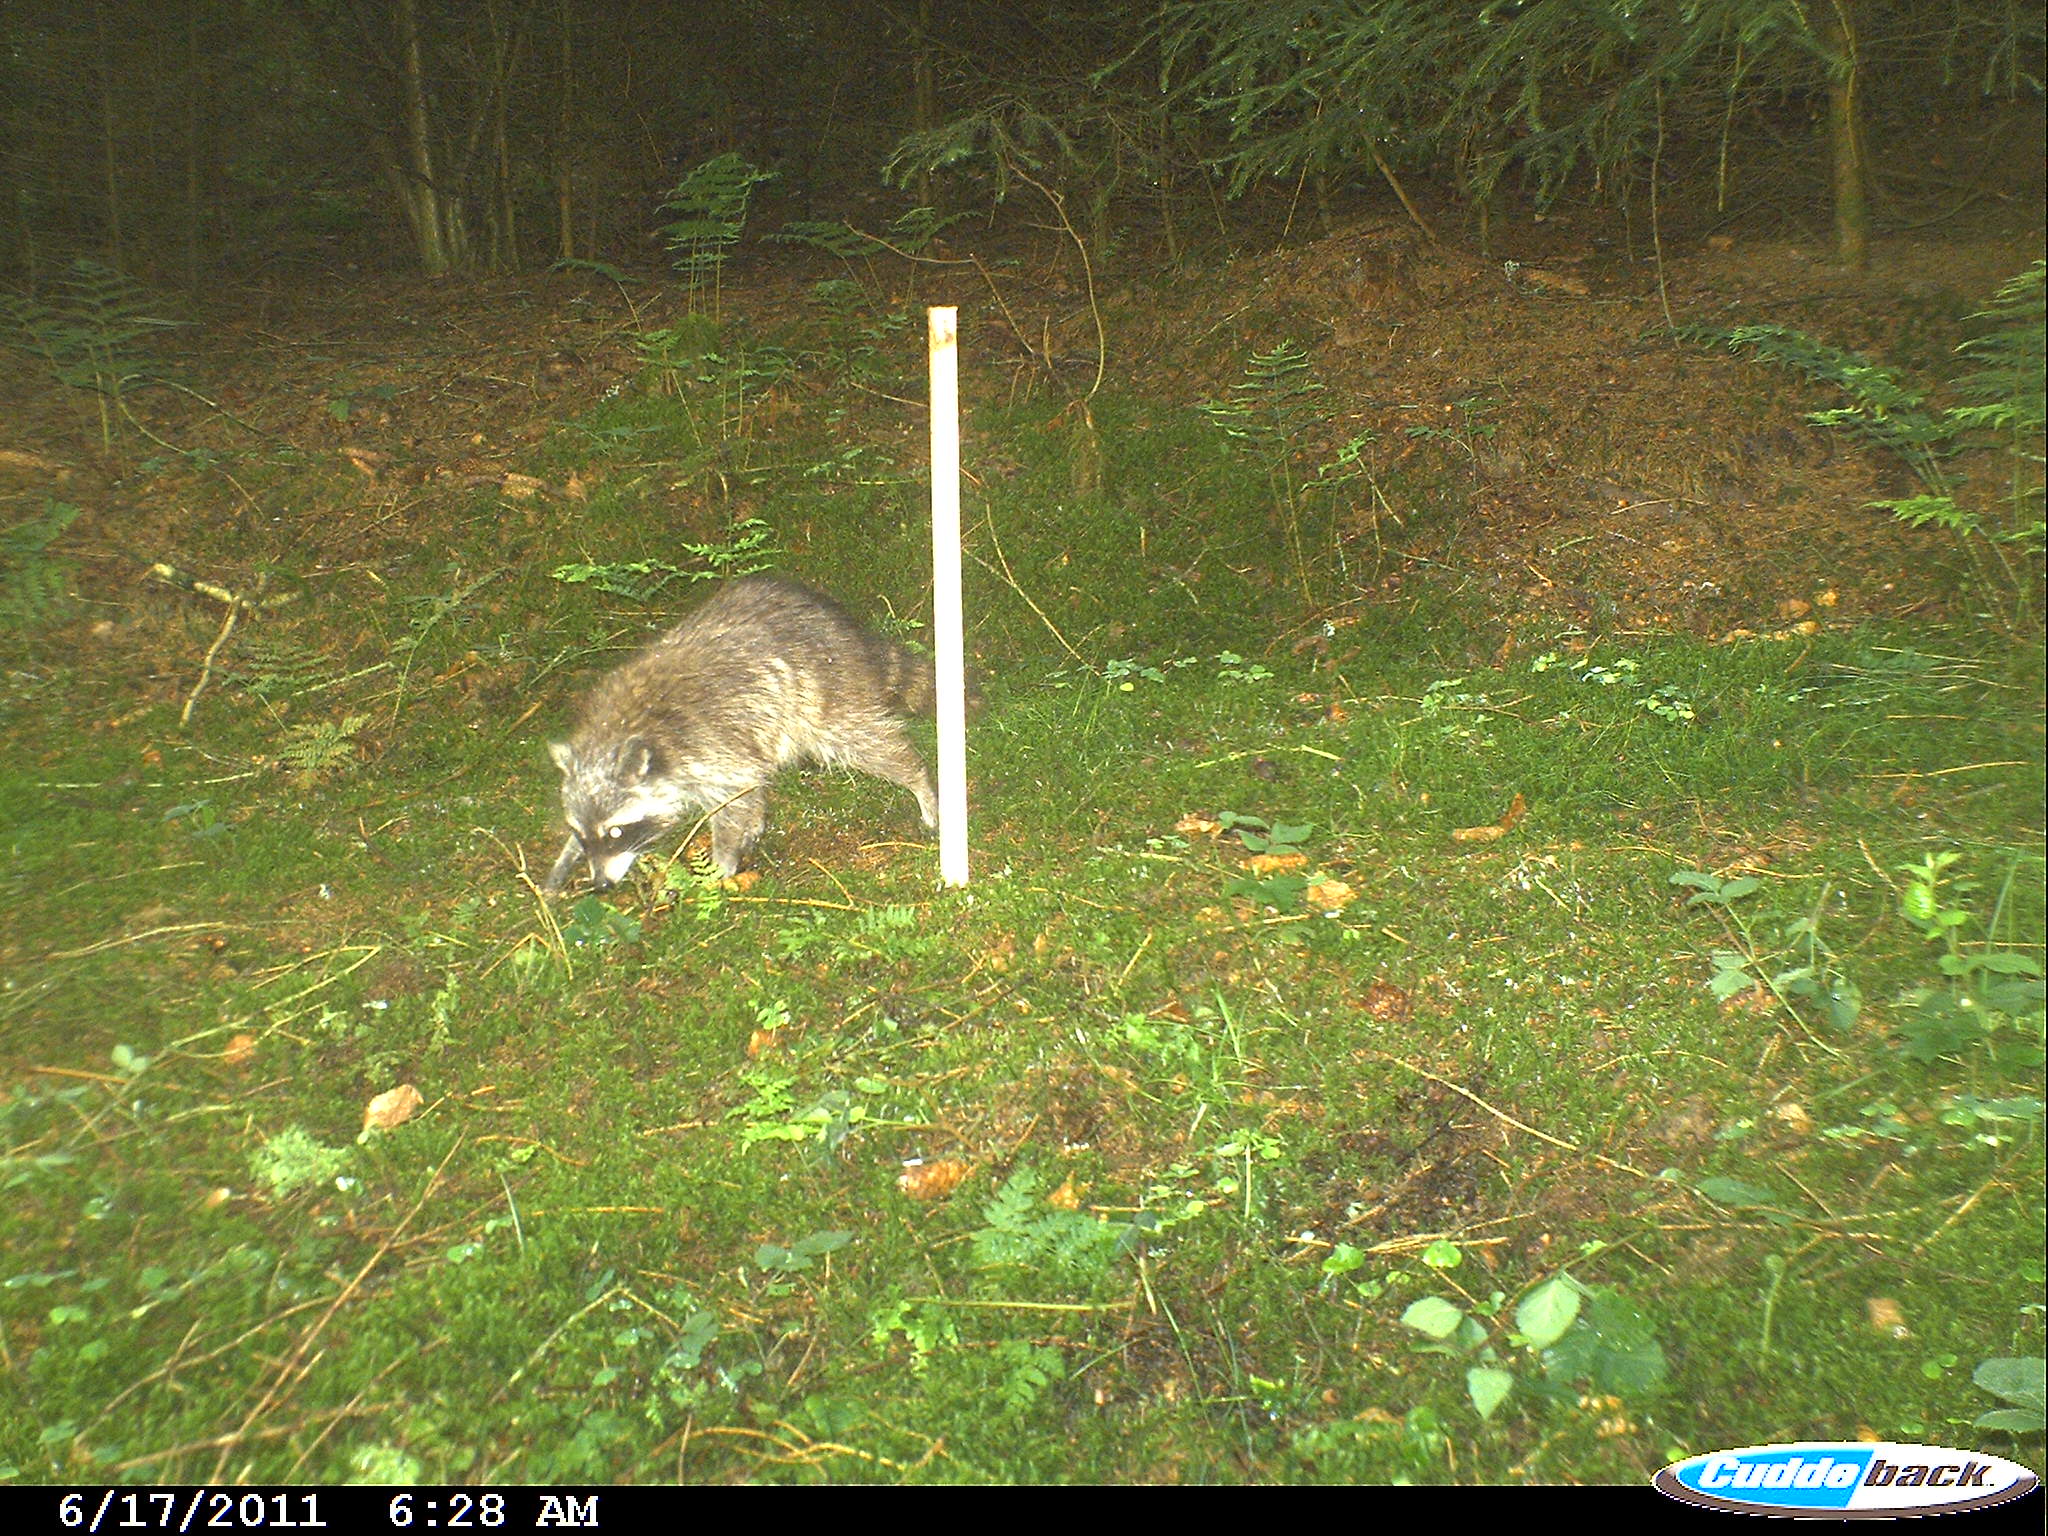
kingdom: Animalia
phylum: Chordata
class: Mammalia
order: Carnivora
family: Procyonidae
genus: Procyon
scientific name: Procyon lotor
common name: Raccoon
